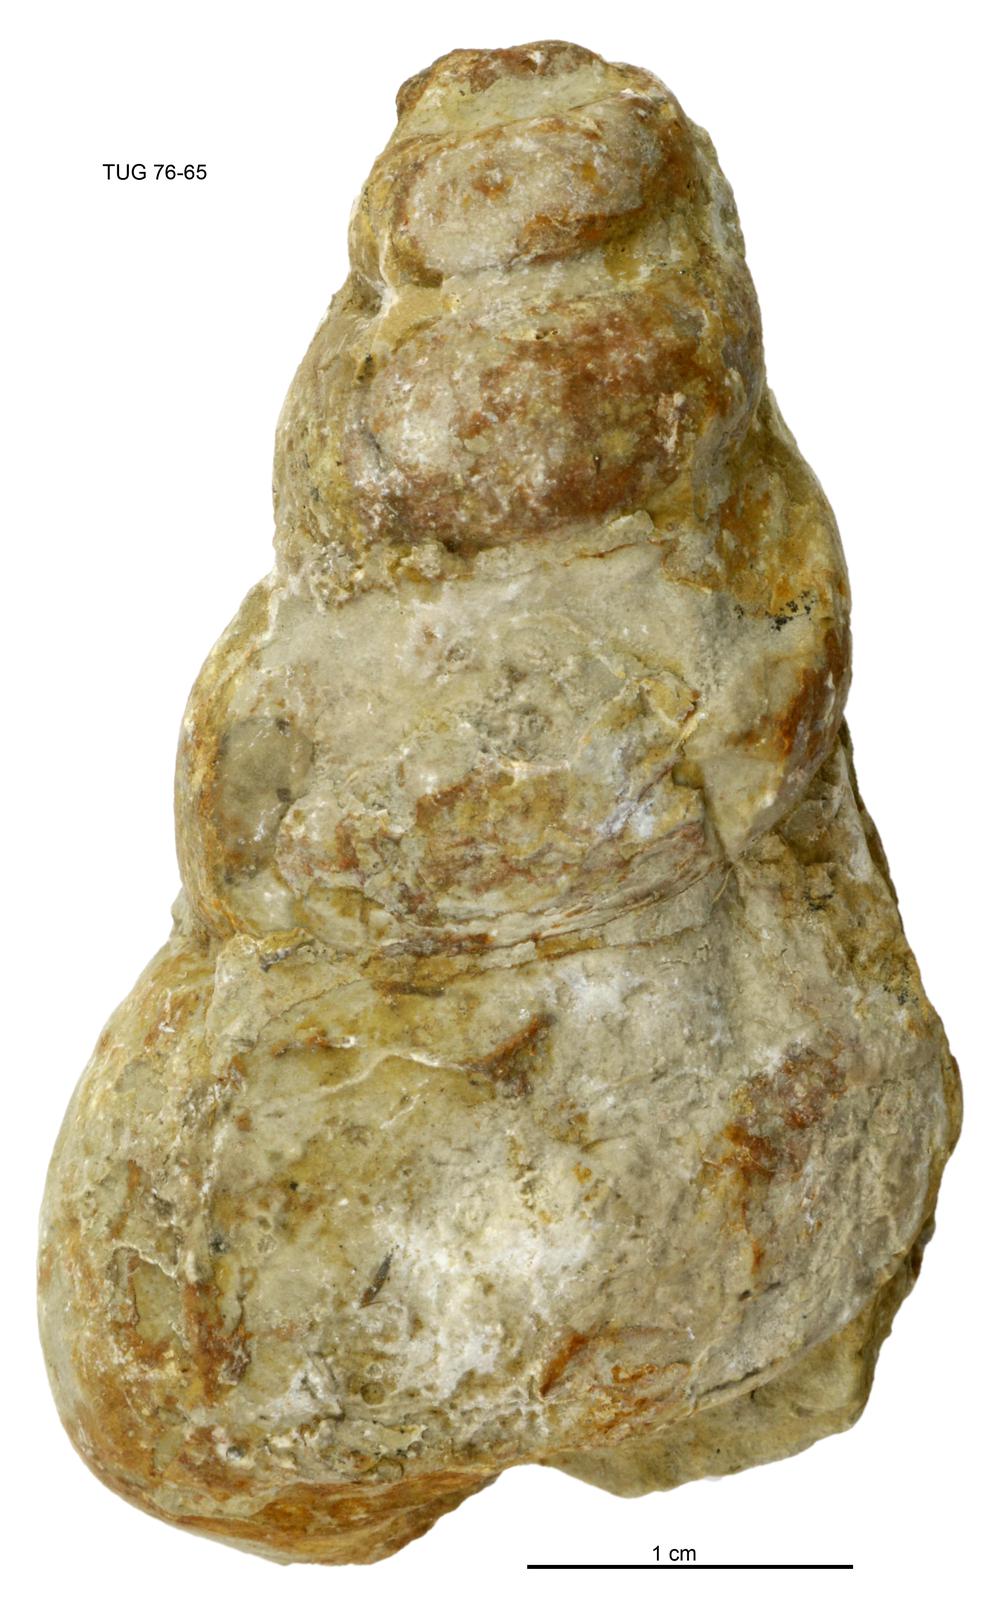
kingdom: Animalia
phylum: Mollusca
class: Gastropoda
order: Pleurotomariida
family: Murchisoniidae
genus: Murchisonia
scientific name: Murchisonia insignis
